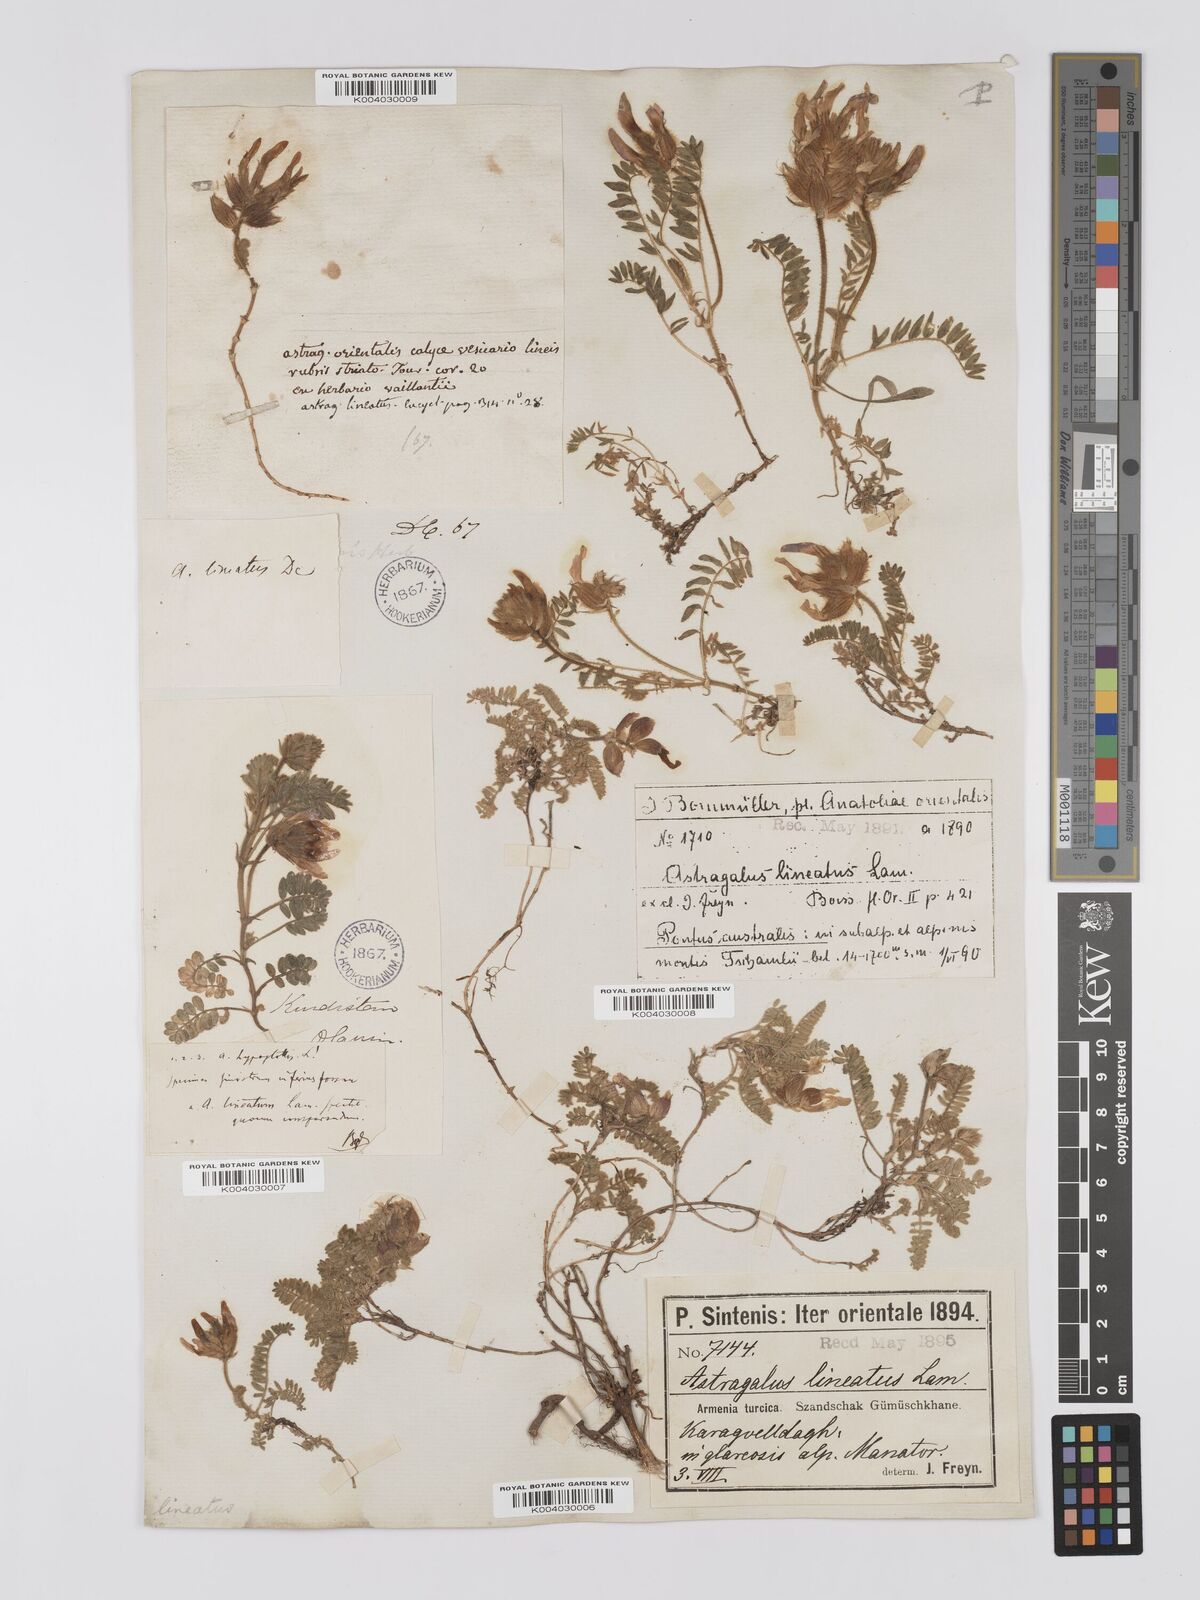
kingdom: Plantae
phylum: Tracheophyta
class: Magnoliopsida
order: Fabales
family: Fabaceae
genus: Astragalus
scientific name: Astragalus lineatus
